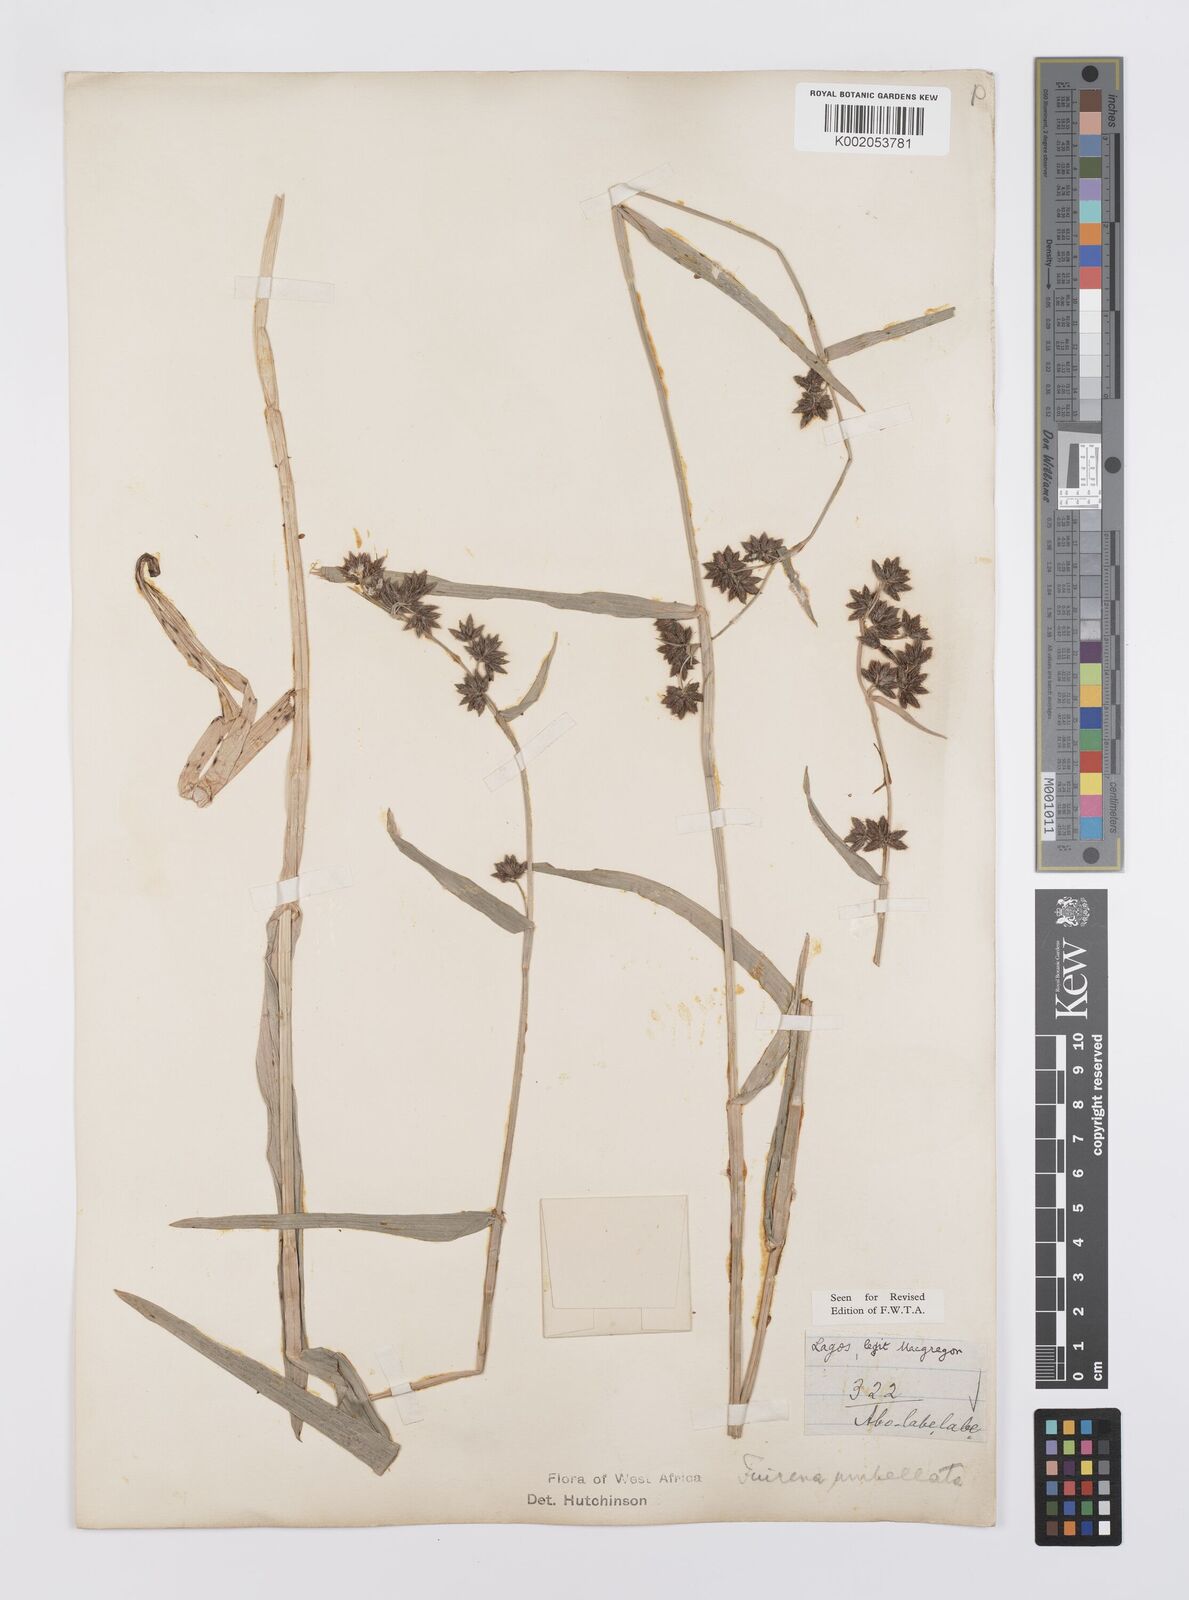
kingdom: Plantae
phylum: Tracheophyta
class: Liliopsida
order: Poales
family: Cyperaceae
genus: Fuirena
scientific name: Fuirena umbellata
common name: Yefen
